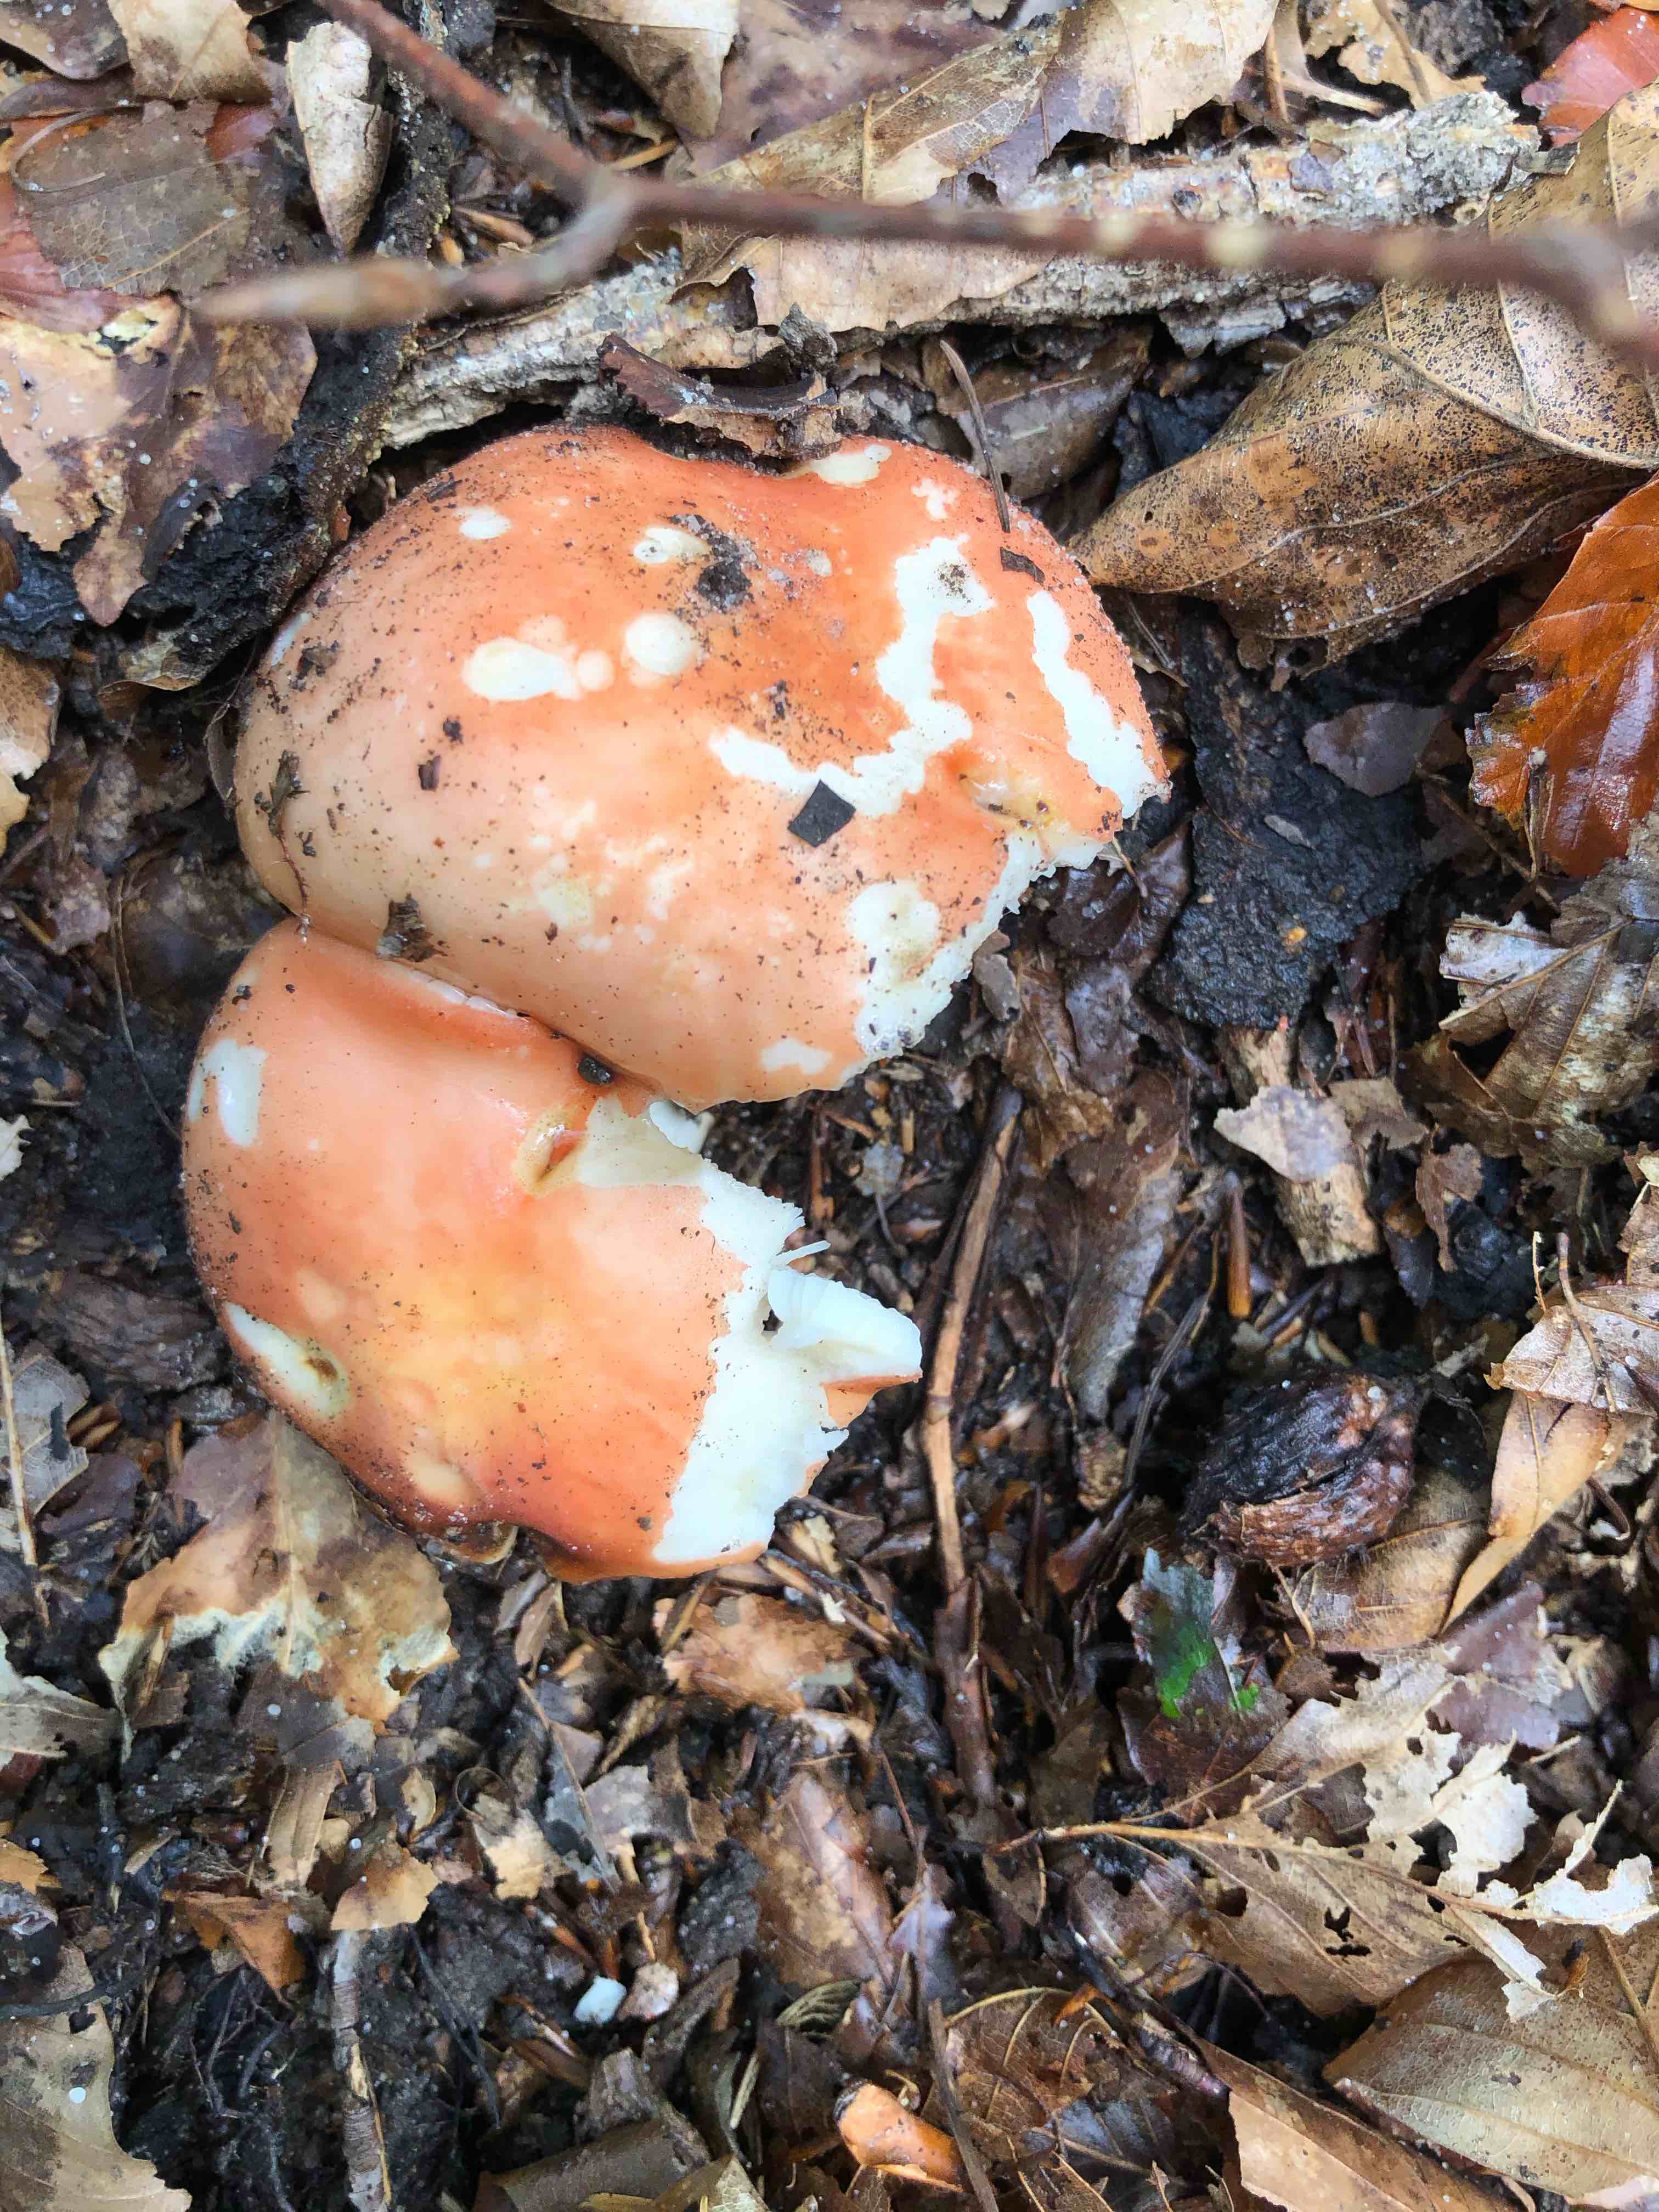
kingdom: Fungi
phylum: Basidiomycota
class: Agaricomycetes
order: Russulales
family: Russulaceae
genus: Russula
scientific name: Russula rosea
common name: fastkødet skørhat
